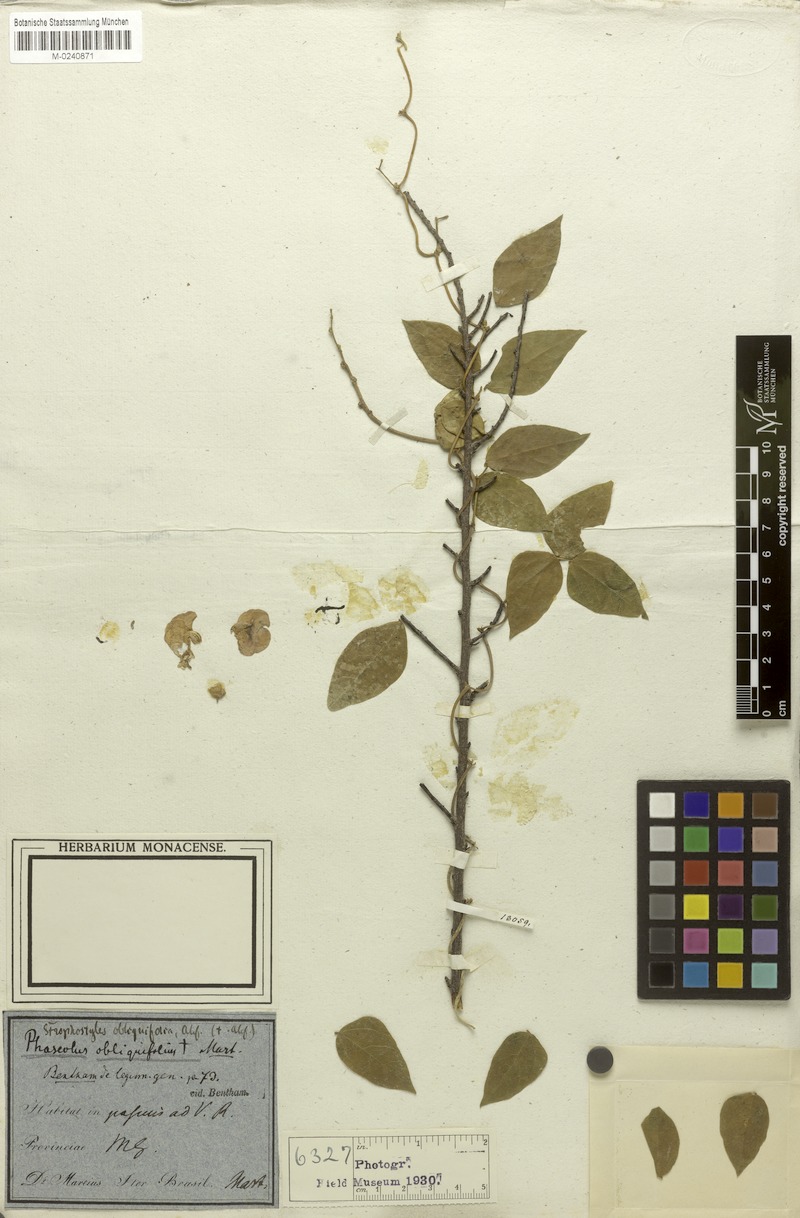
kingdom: Plantae
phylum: Tracheophyta
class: Magnoliopsida
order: Fabales
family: Fabaceae
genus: Condylostylis
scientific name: Condylostylis candida
